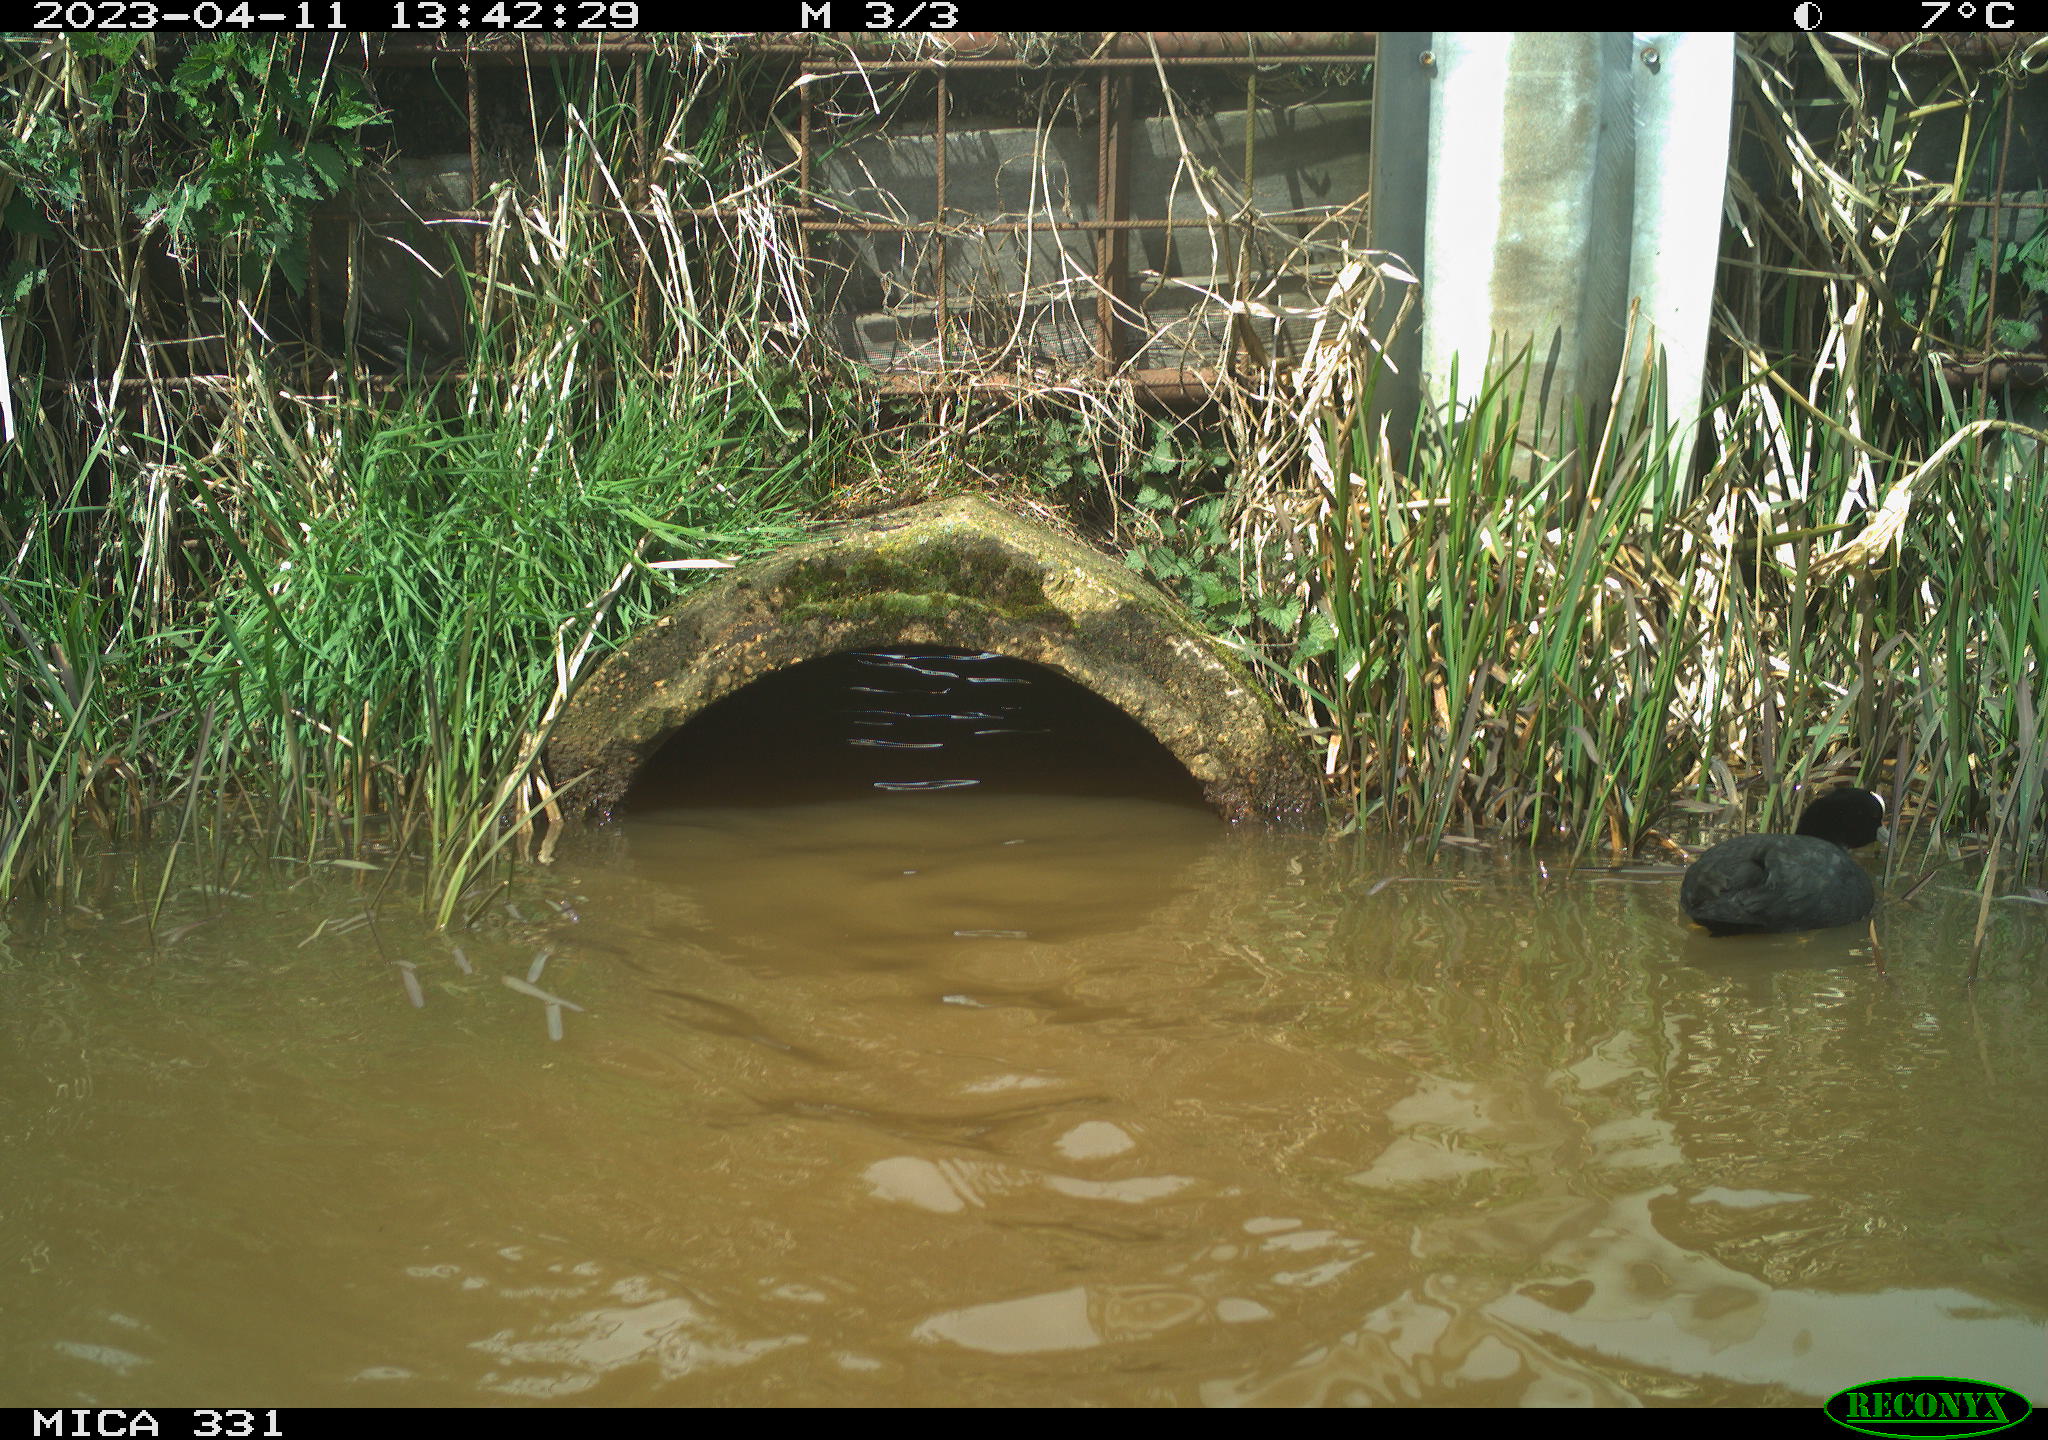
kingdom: Animalia
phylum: Chordata
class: Aves
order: Gruiformes
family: Rallidae
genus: Fulica
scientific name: Fulica atra
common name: Eurasian coot
